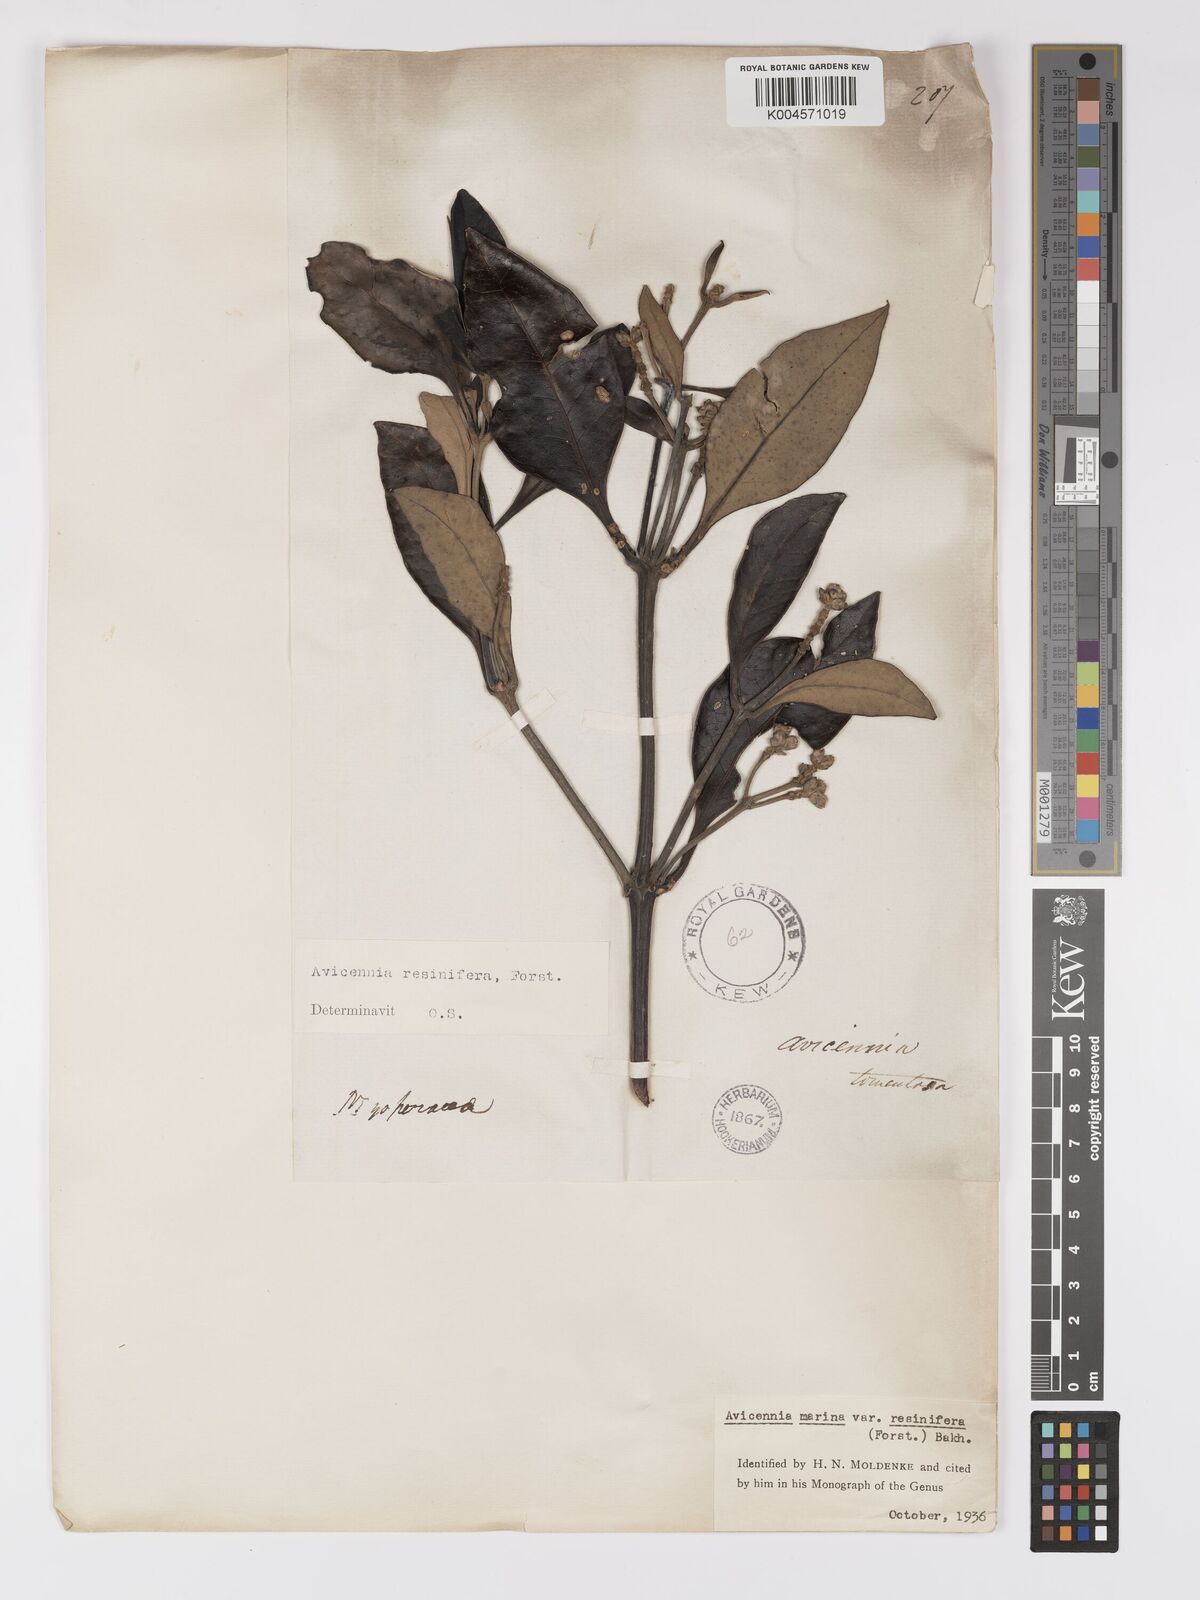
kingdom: Plantae
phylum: Tracheophyta
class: Magnoliopsida
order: Lamiales
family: Acanthaceae
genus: Avicennia
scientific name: Avicennia marina
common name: Gray mangrove
